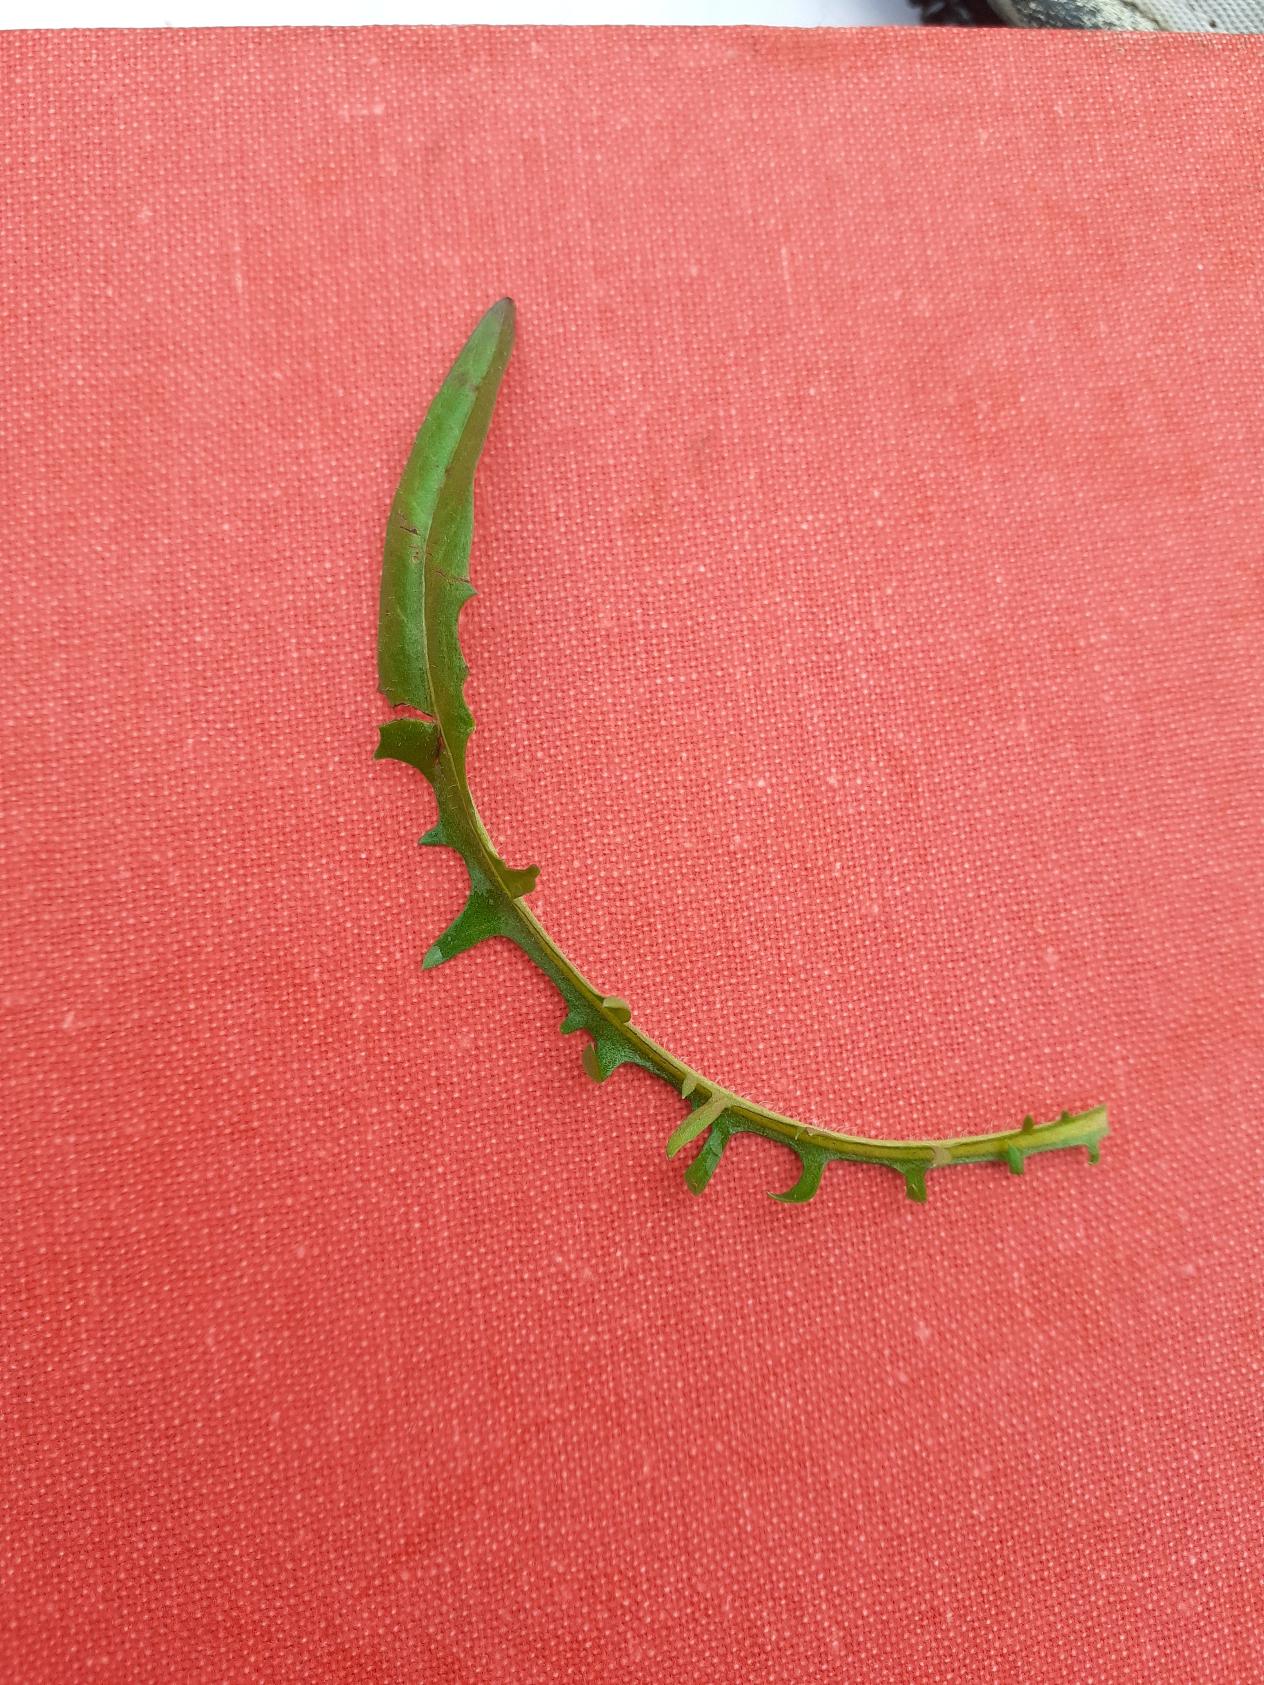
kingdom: Plantae
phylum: Tracheophyta
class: Magnoliopsida
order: Asterales
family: Asteraceae
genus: Crepis
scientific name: Crepis capillaris
